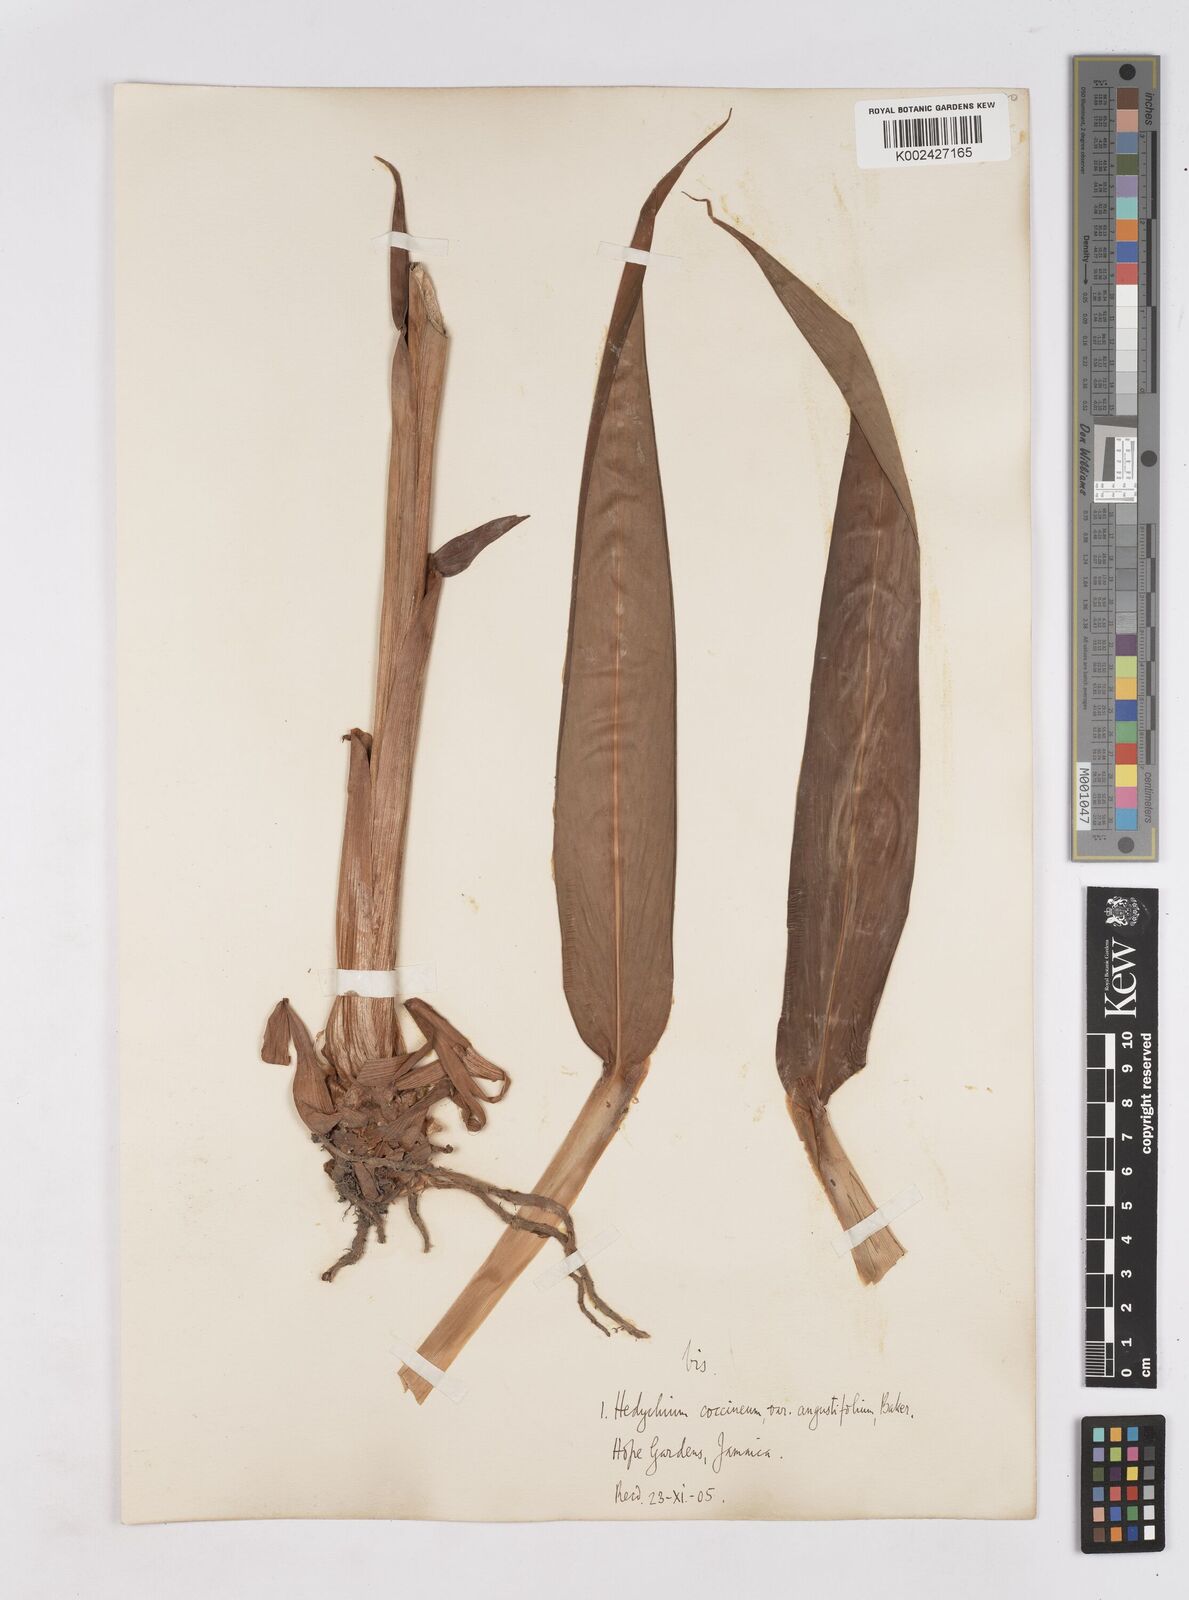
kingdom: Plantae
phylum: Tracheophyta
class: Liliopsida
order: Zingiberales
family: Zingiberaceae
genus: Hedychium
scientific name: Hedychium coccineum
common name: Red ginger-lily
